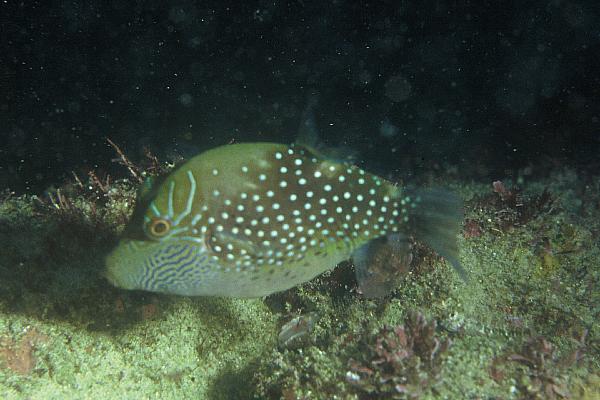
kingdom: Animalia
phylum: Chordata
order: Tetraodontiformes
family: Tetraodontidae
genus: Canthigaster
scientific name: Canthigaster amboinensis
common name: Ambon pufferfish
